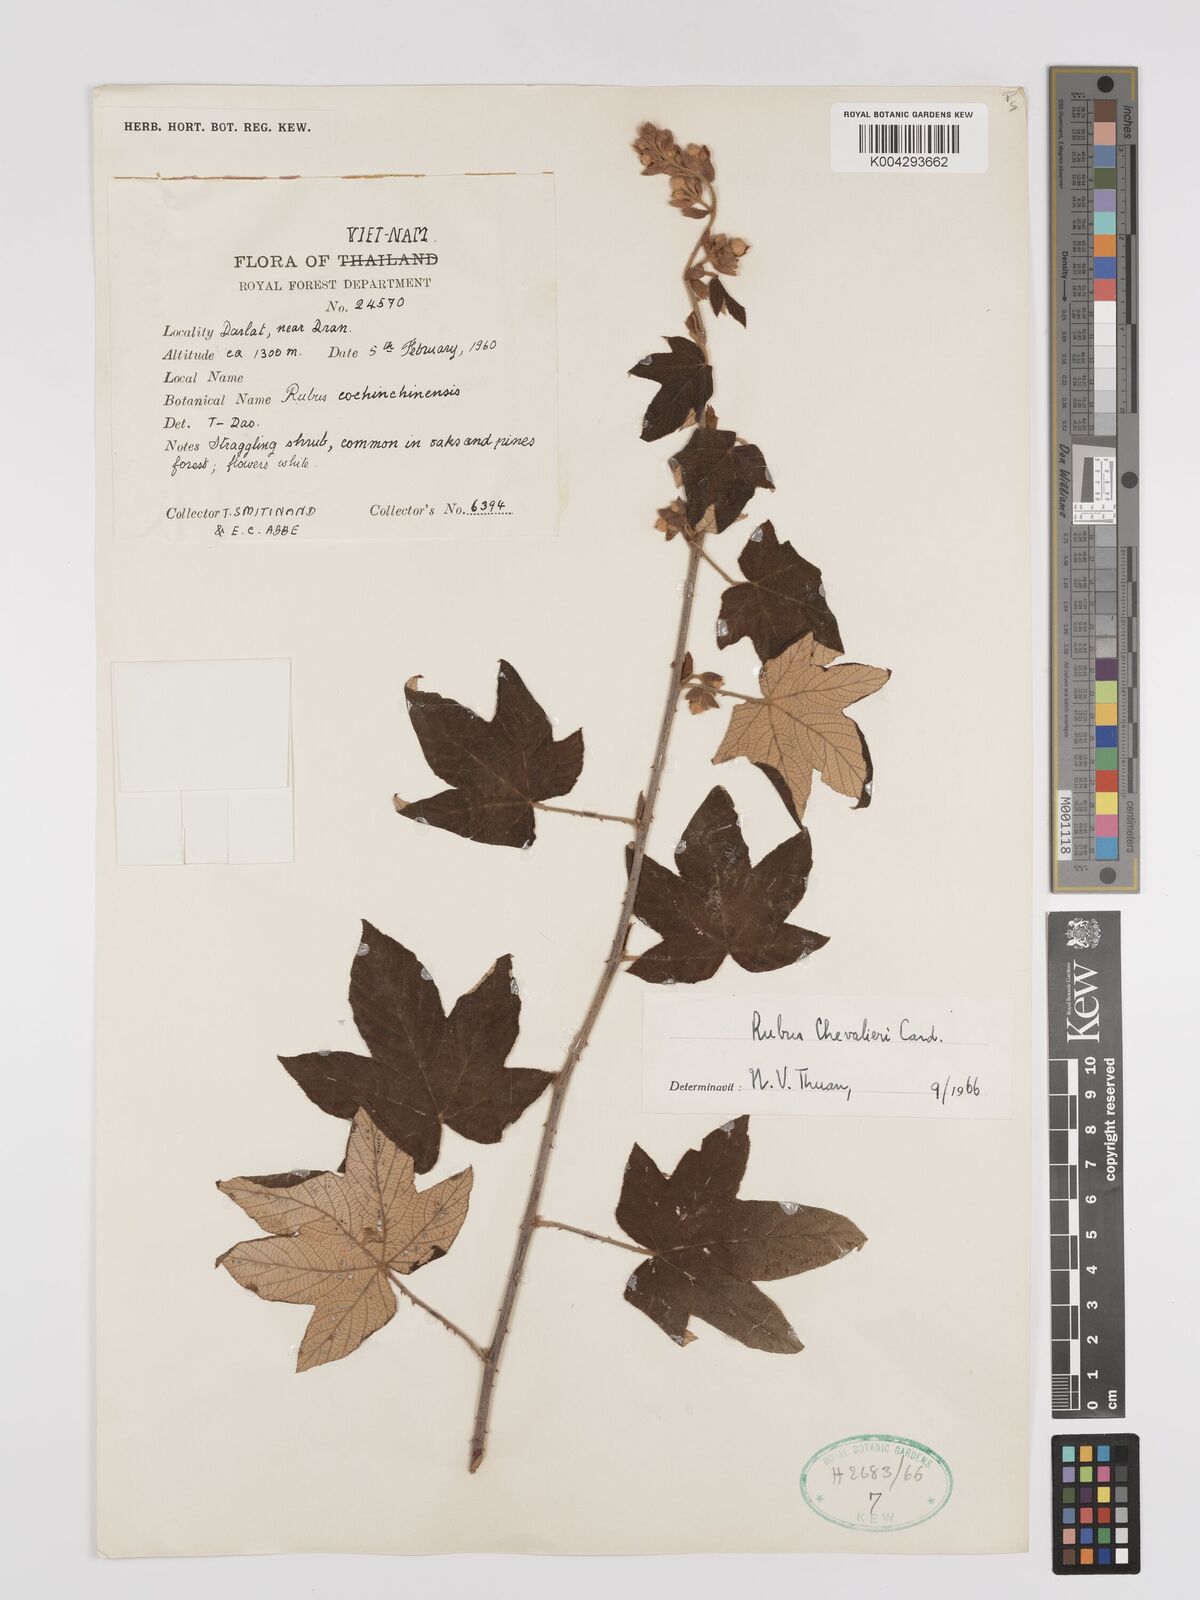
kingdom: Plantae
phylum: Tracheophyta
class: Magnoliopsida
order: Rosales
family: Rosaceae
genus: Rubus
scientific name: Rubus chevalieri
